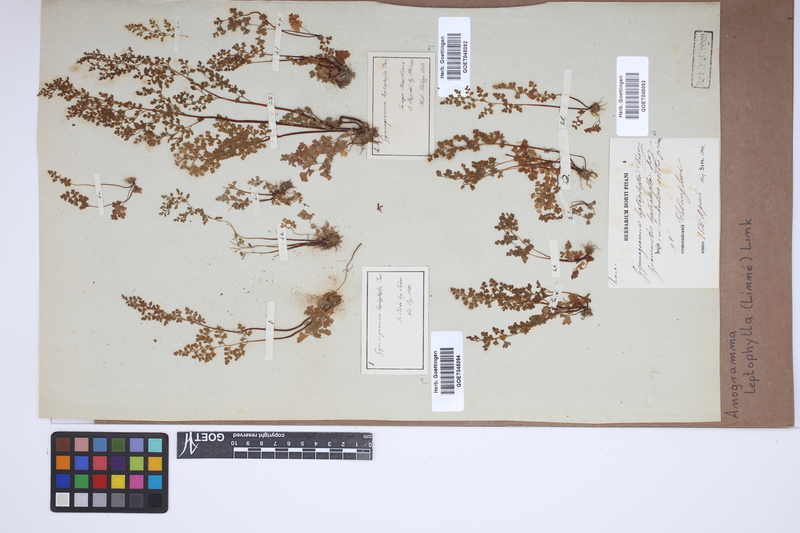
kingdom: Plantae
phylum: Tracheophyta
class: Polypodiopsida
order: Polypodiales
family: Pteridaceae
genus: Anogramma
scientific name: Anogramma leptophylla
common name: Jersey fern
